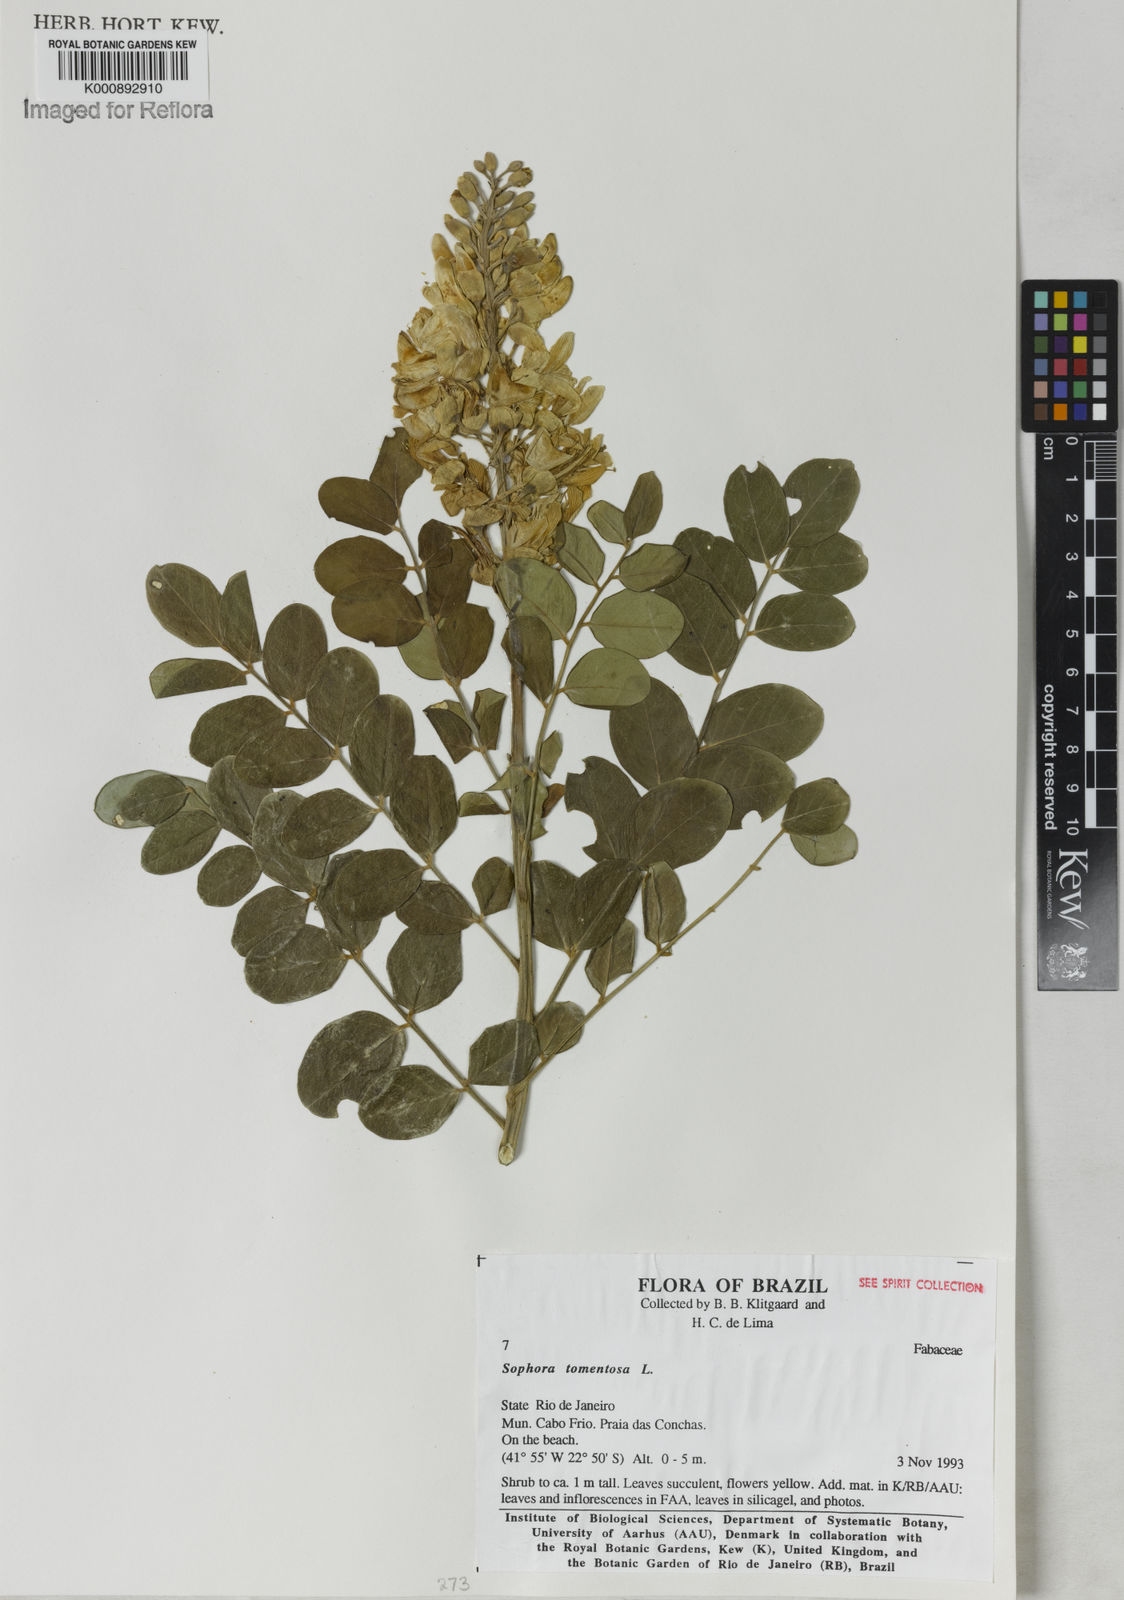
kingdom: Plantae
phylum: Tracheophyta
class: Magnoliopsida
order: Fabales
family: Fabaceae
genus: Sophora
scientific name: Sophora tomentosa
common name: Yellow necklacepod
